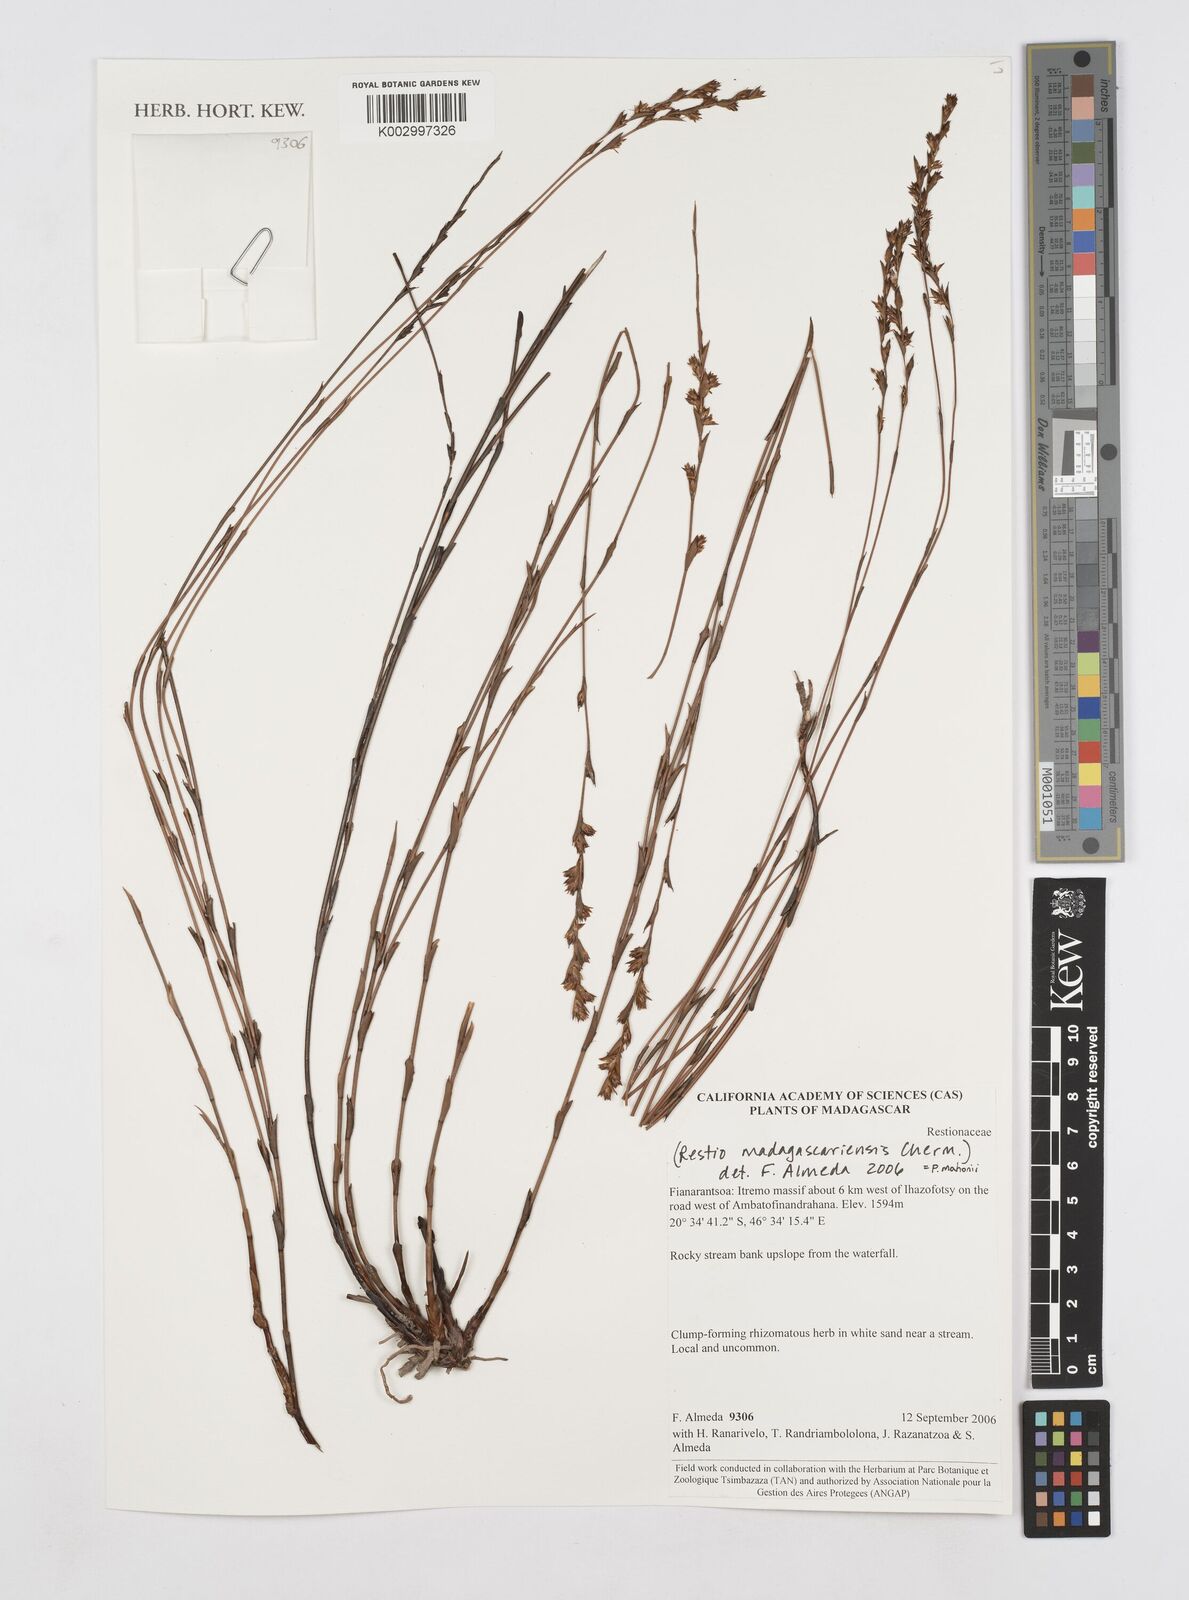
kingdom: Plantae
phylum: Tracheophyta
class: Liliopsida
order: Poales
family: Restionaceae
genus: Platycaulos
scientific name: Platycaulos mahonii
